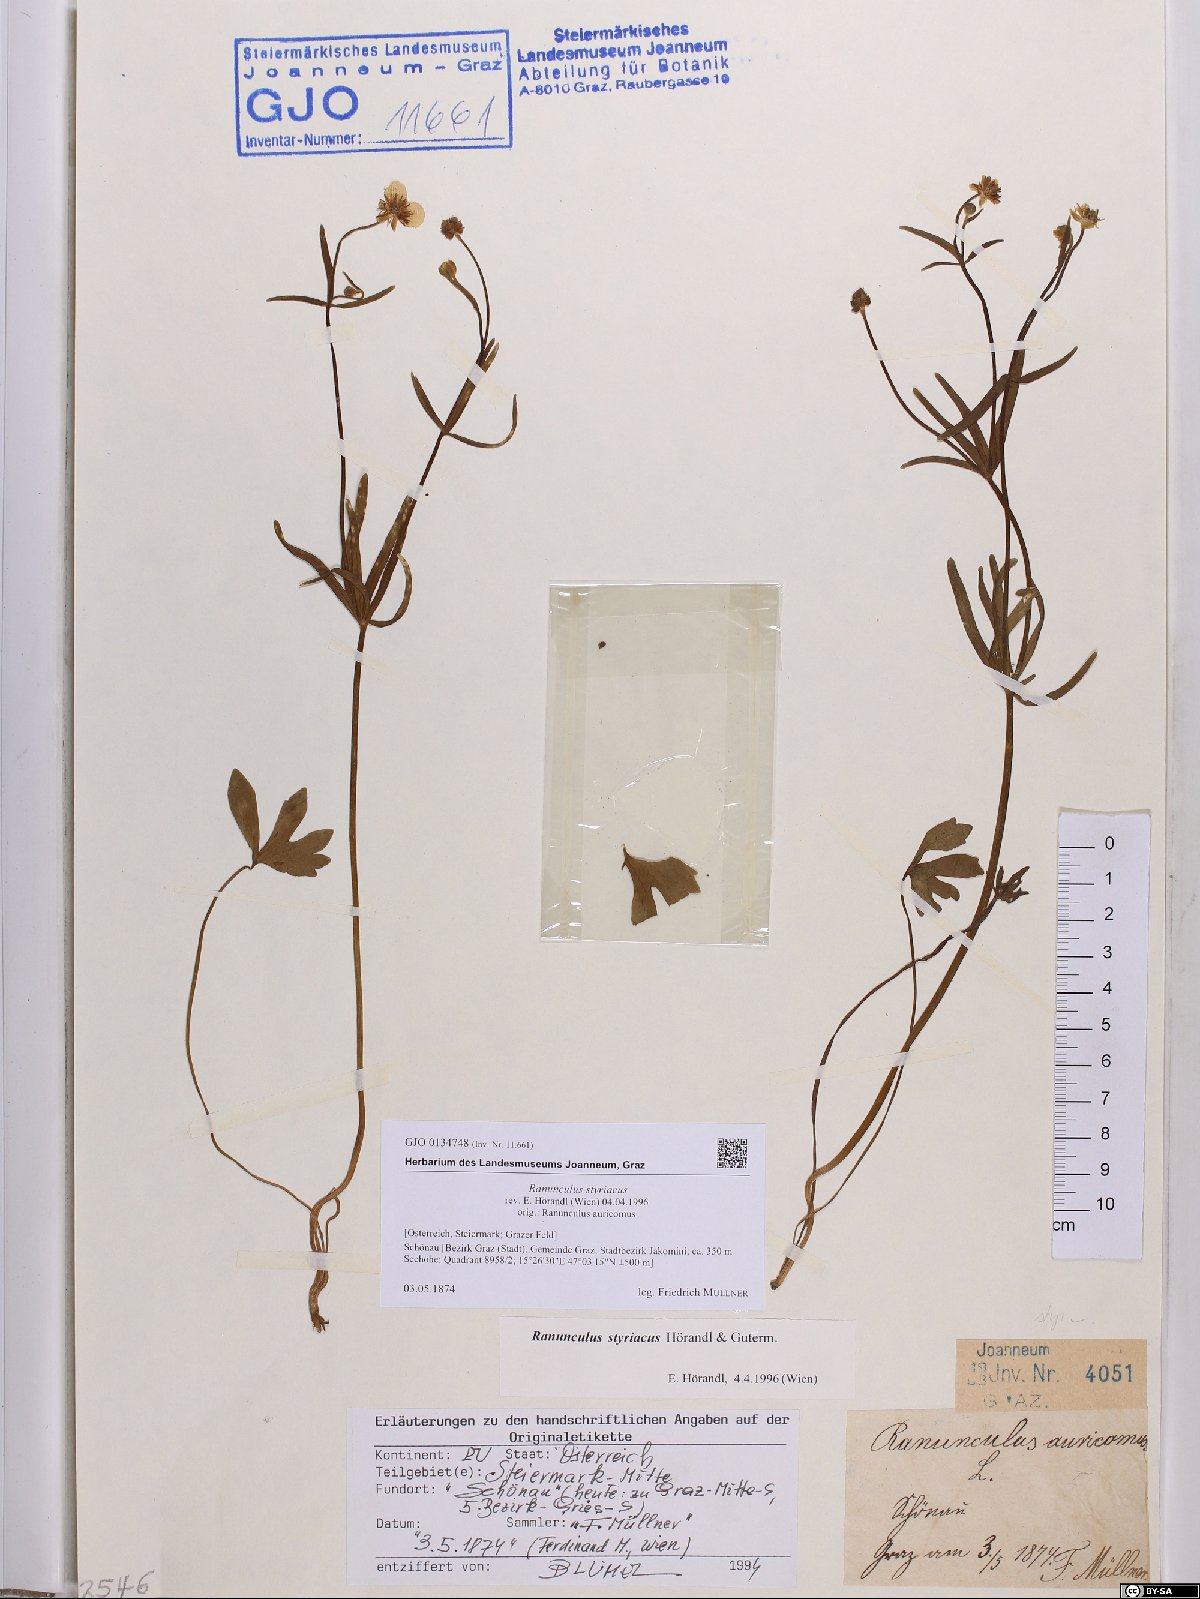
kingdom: Plantae
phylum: Tracheophyta
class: Magnoliopsida
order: Ranunculales
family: Ranunculaceae
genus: Ranunculus
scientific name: Ranunculus styriacus
